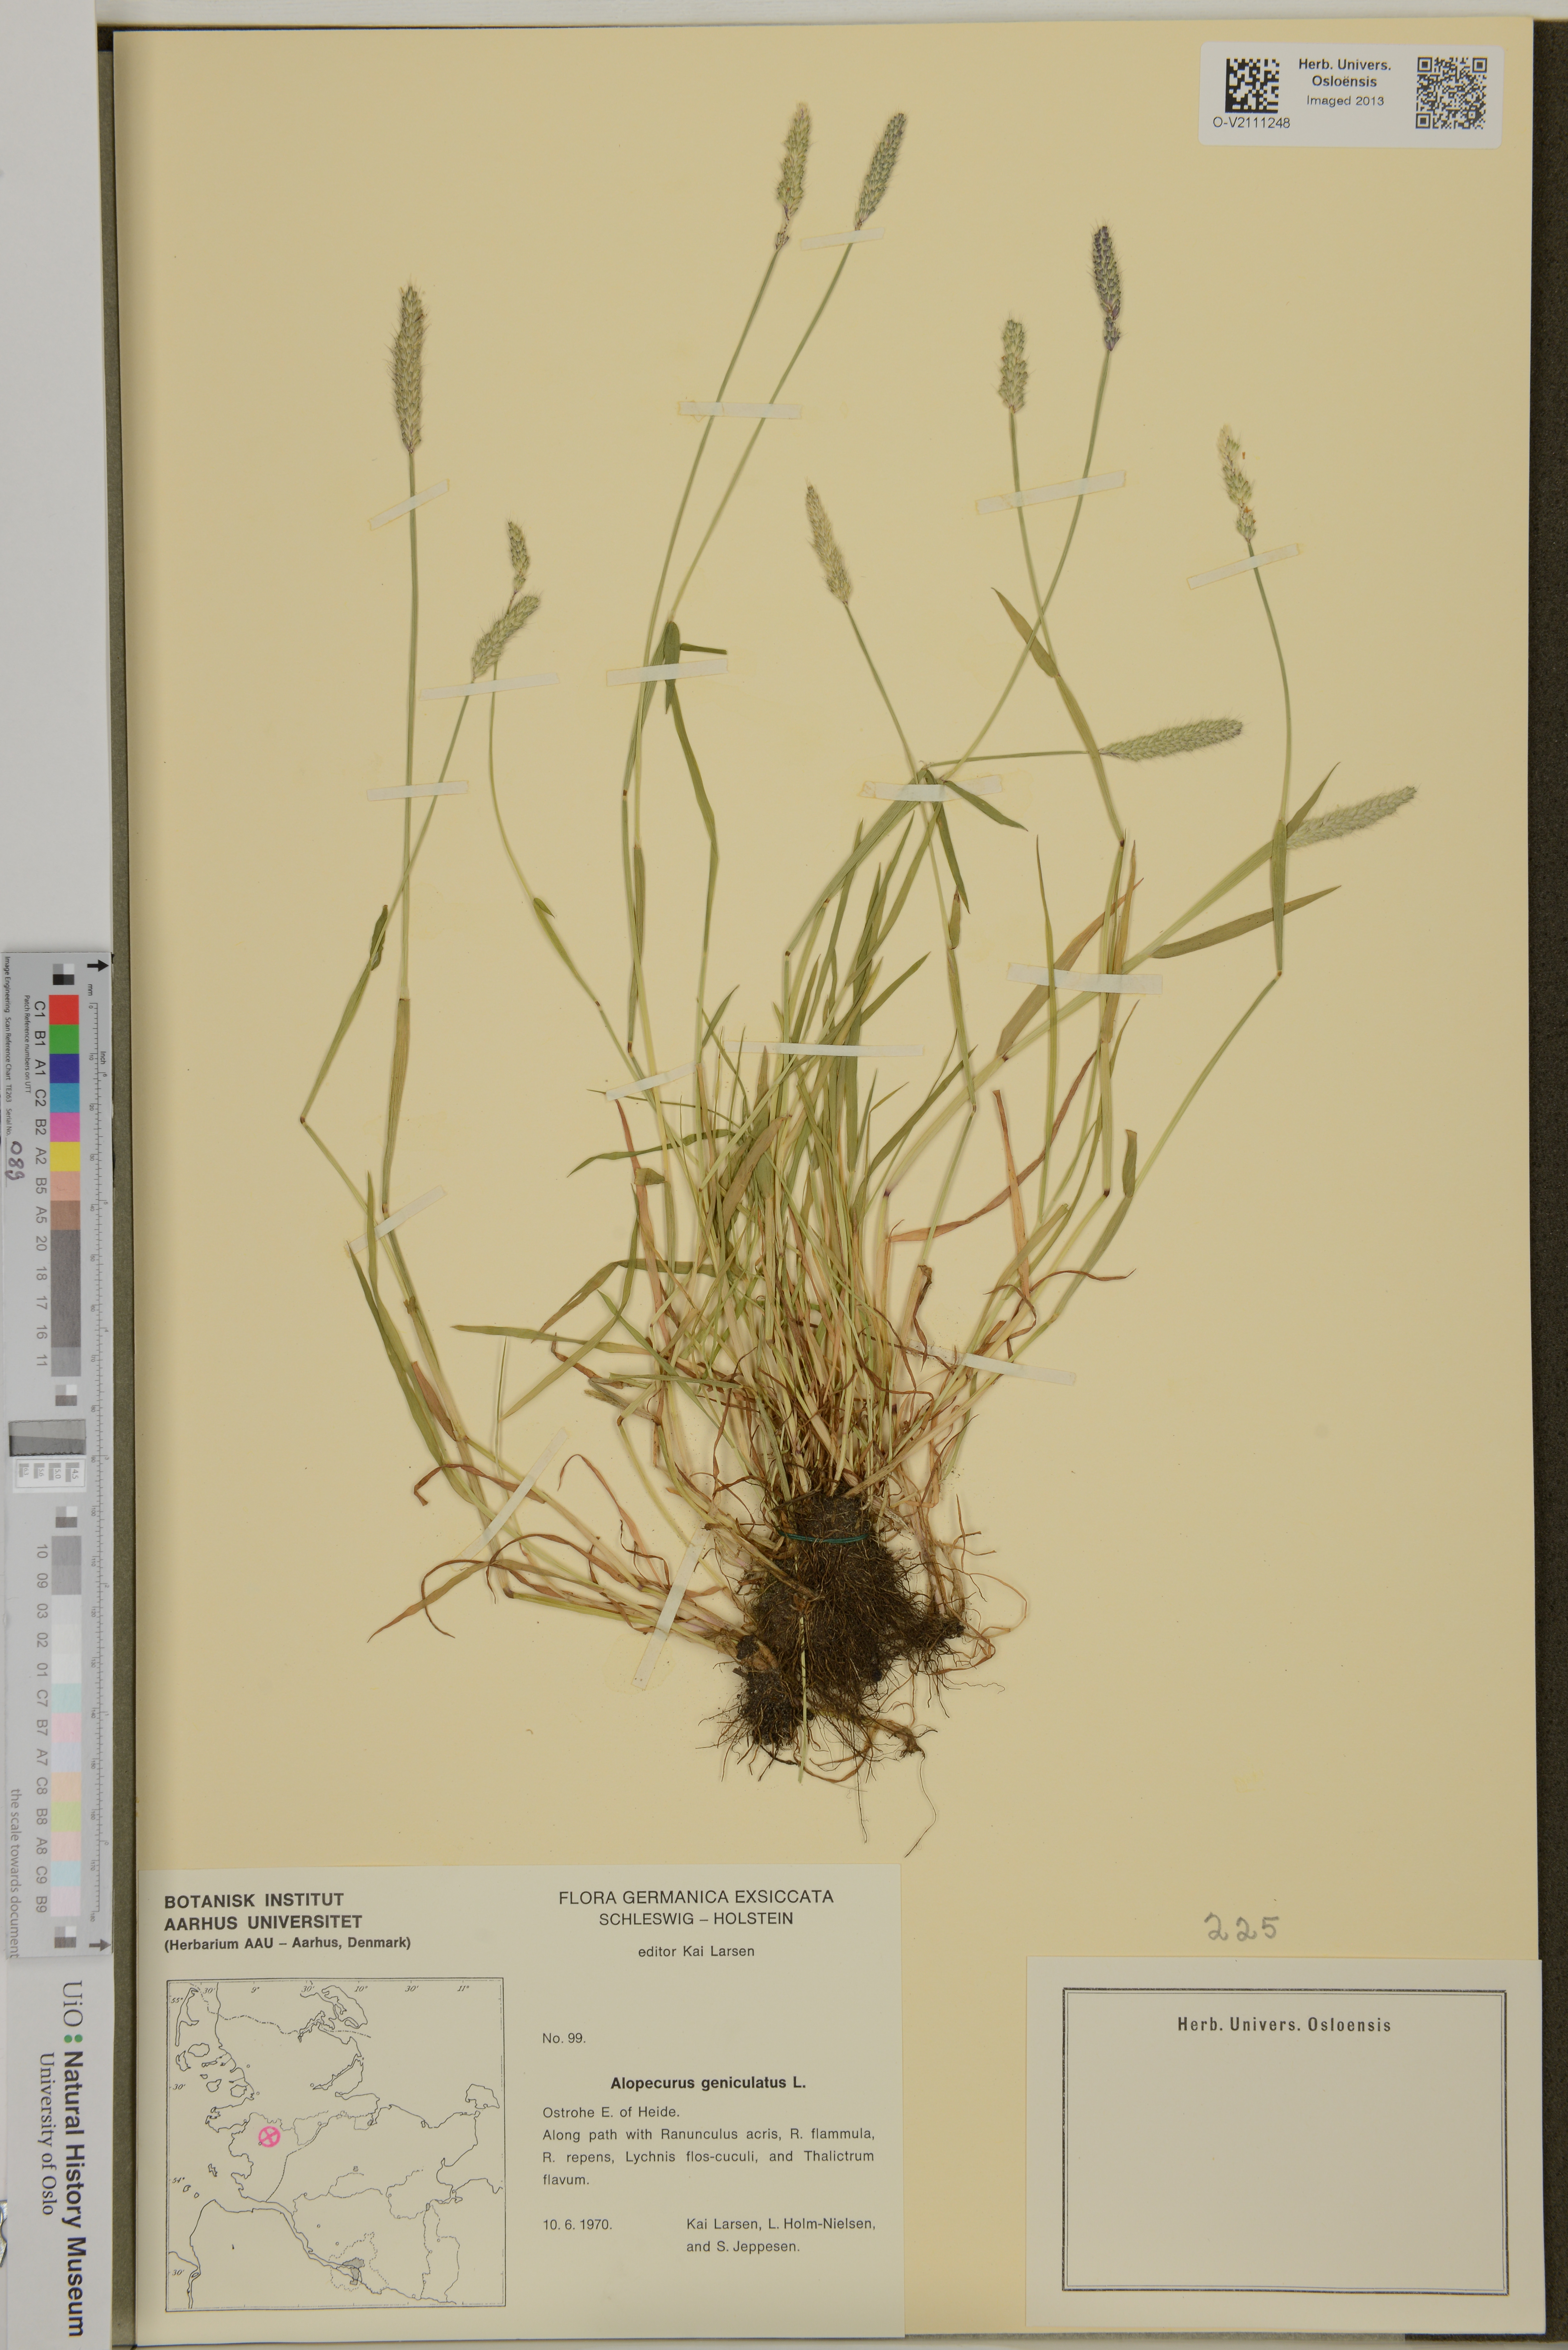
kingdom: Plantae
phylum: Tracheophyta
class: Liliopsida
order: Poales
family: Poaceae
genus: Alopecurus
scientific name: Alopecurus geniculatus
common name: Water foxtail
